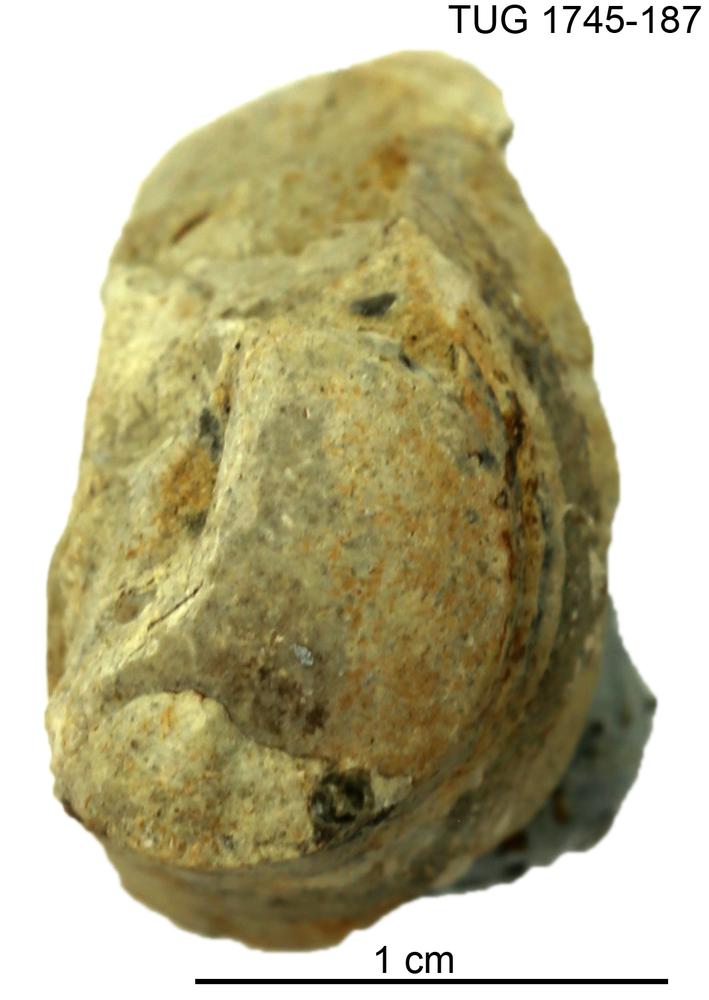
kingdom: Animalia
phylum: Mollusca
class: Cephalopoda
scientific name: Cephalopoda
